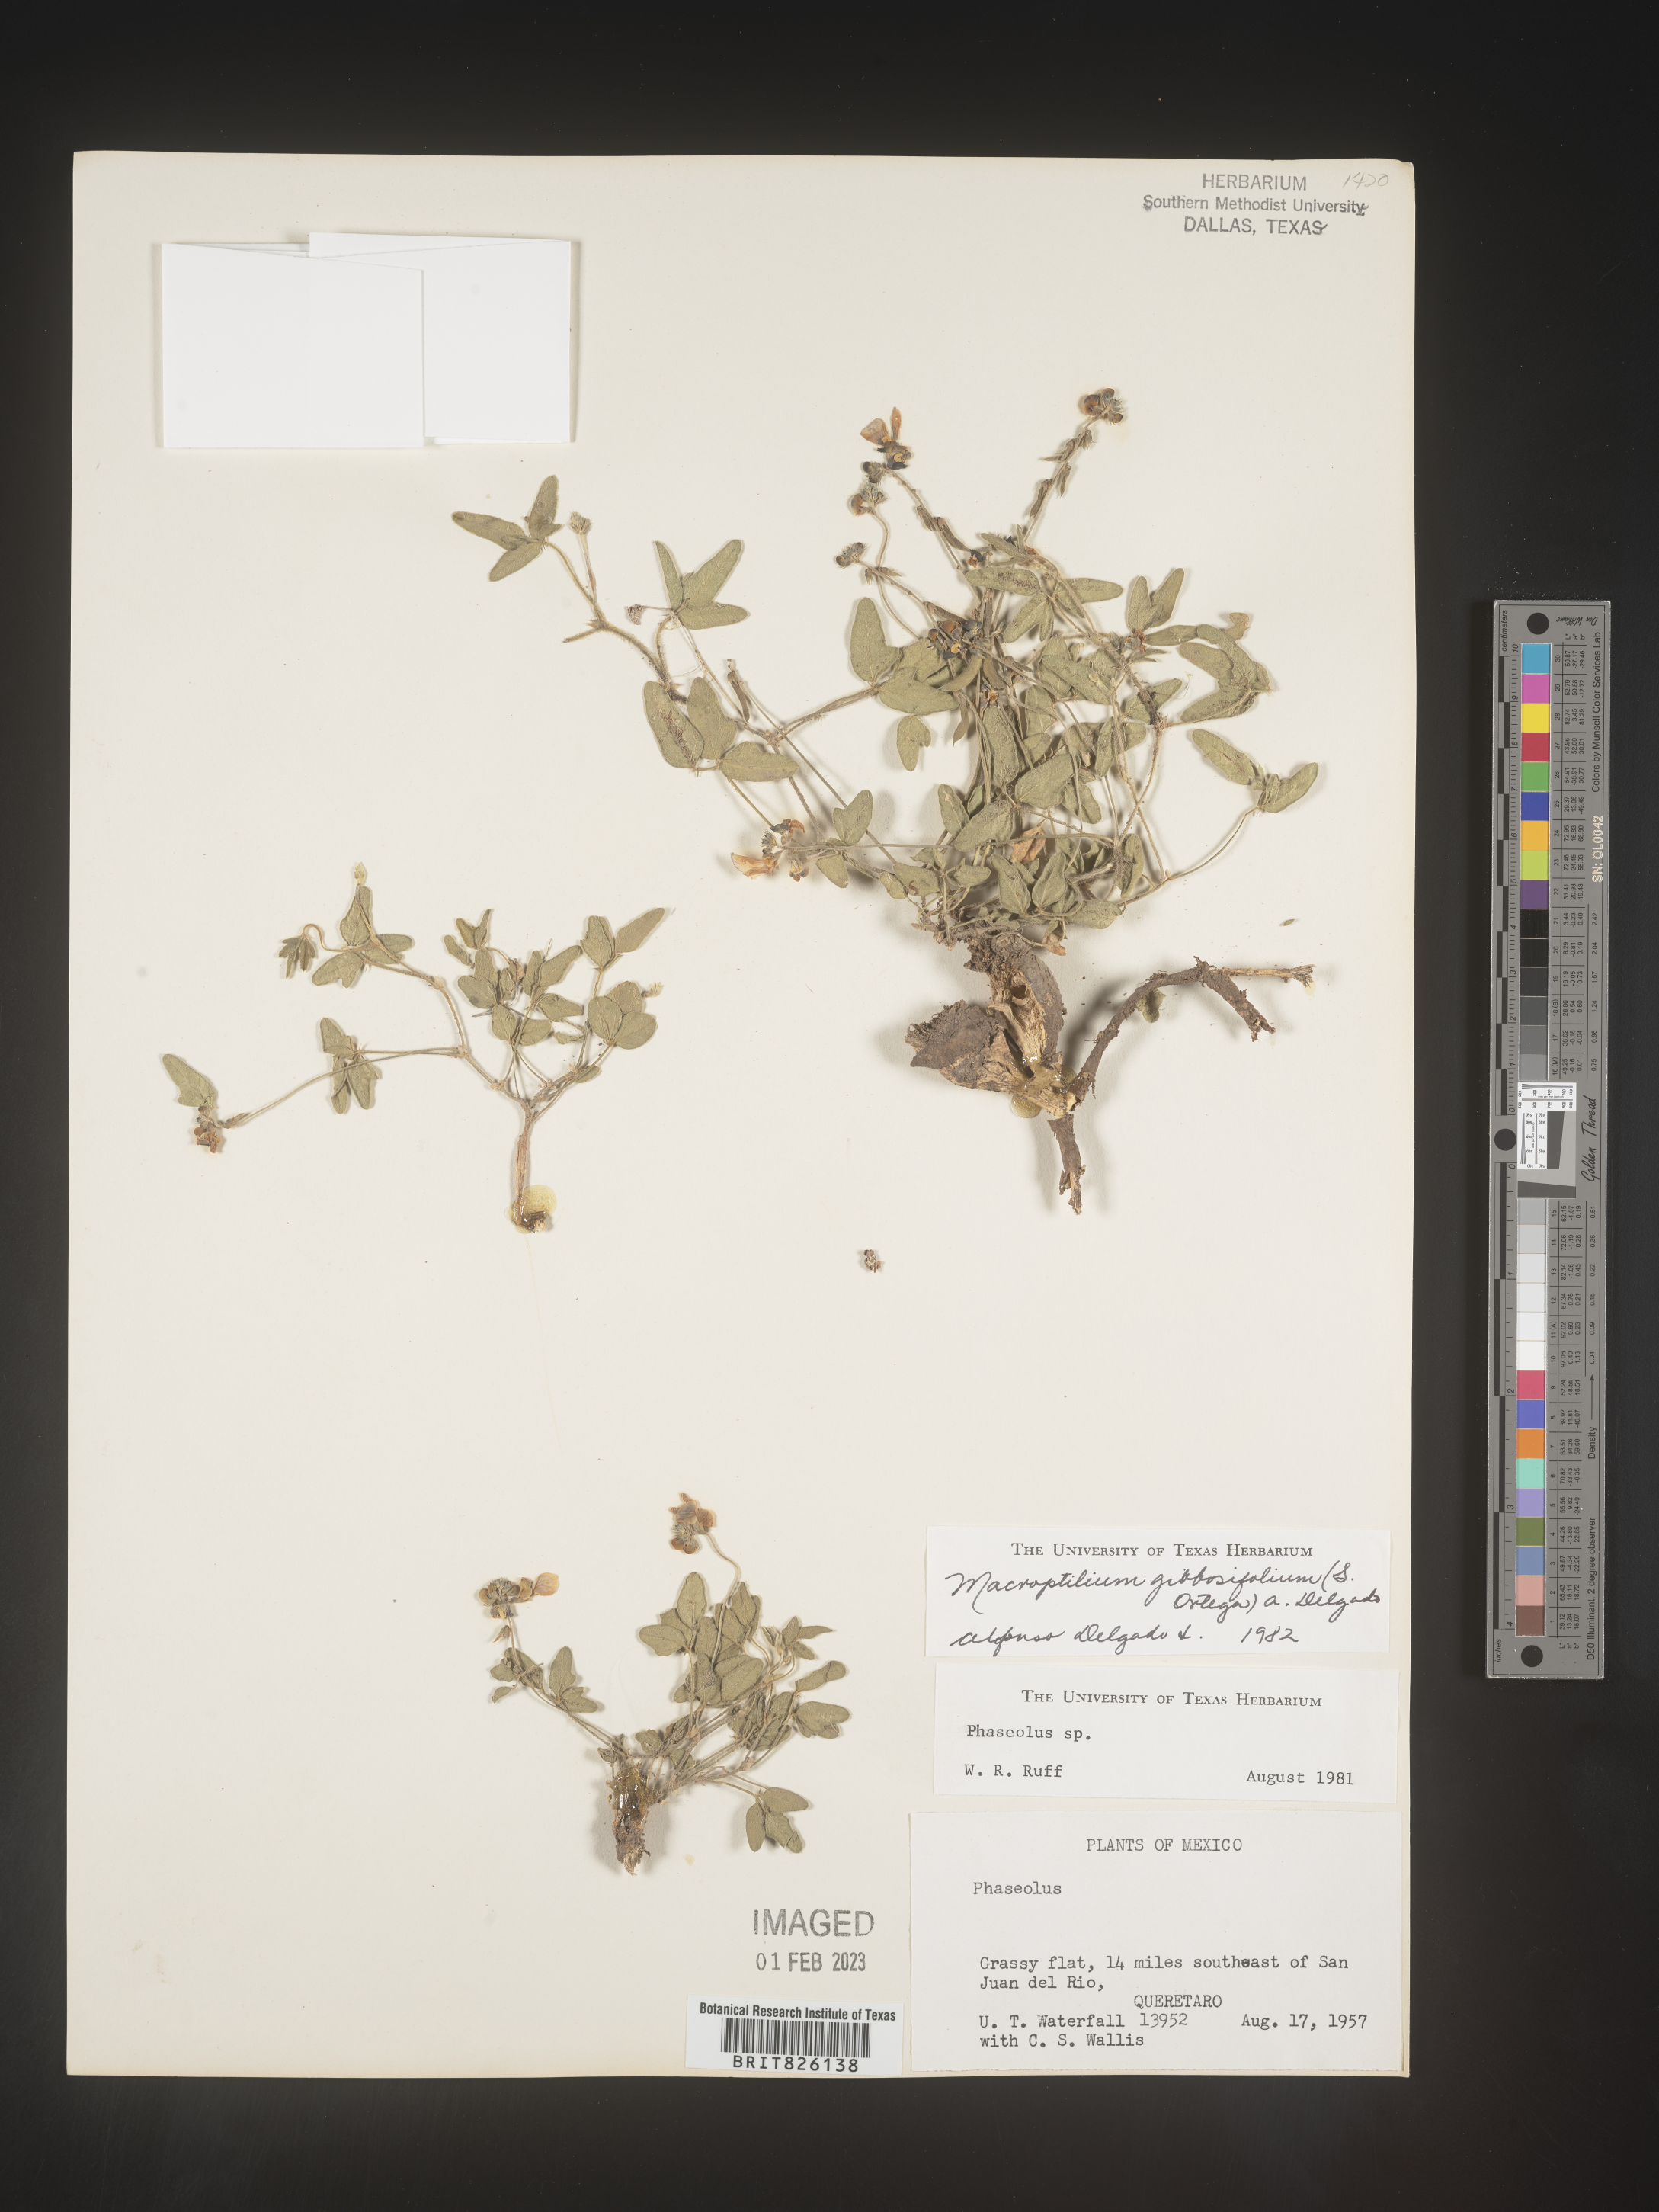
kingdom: Plantae
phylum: Tracheophyta
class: Magnoliopsida
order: Fabales
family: Fabaceae
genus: Macroptilium
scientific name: Macroptilium
